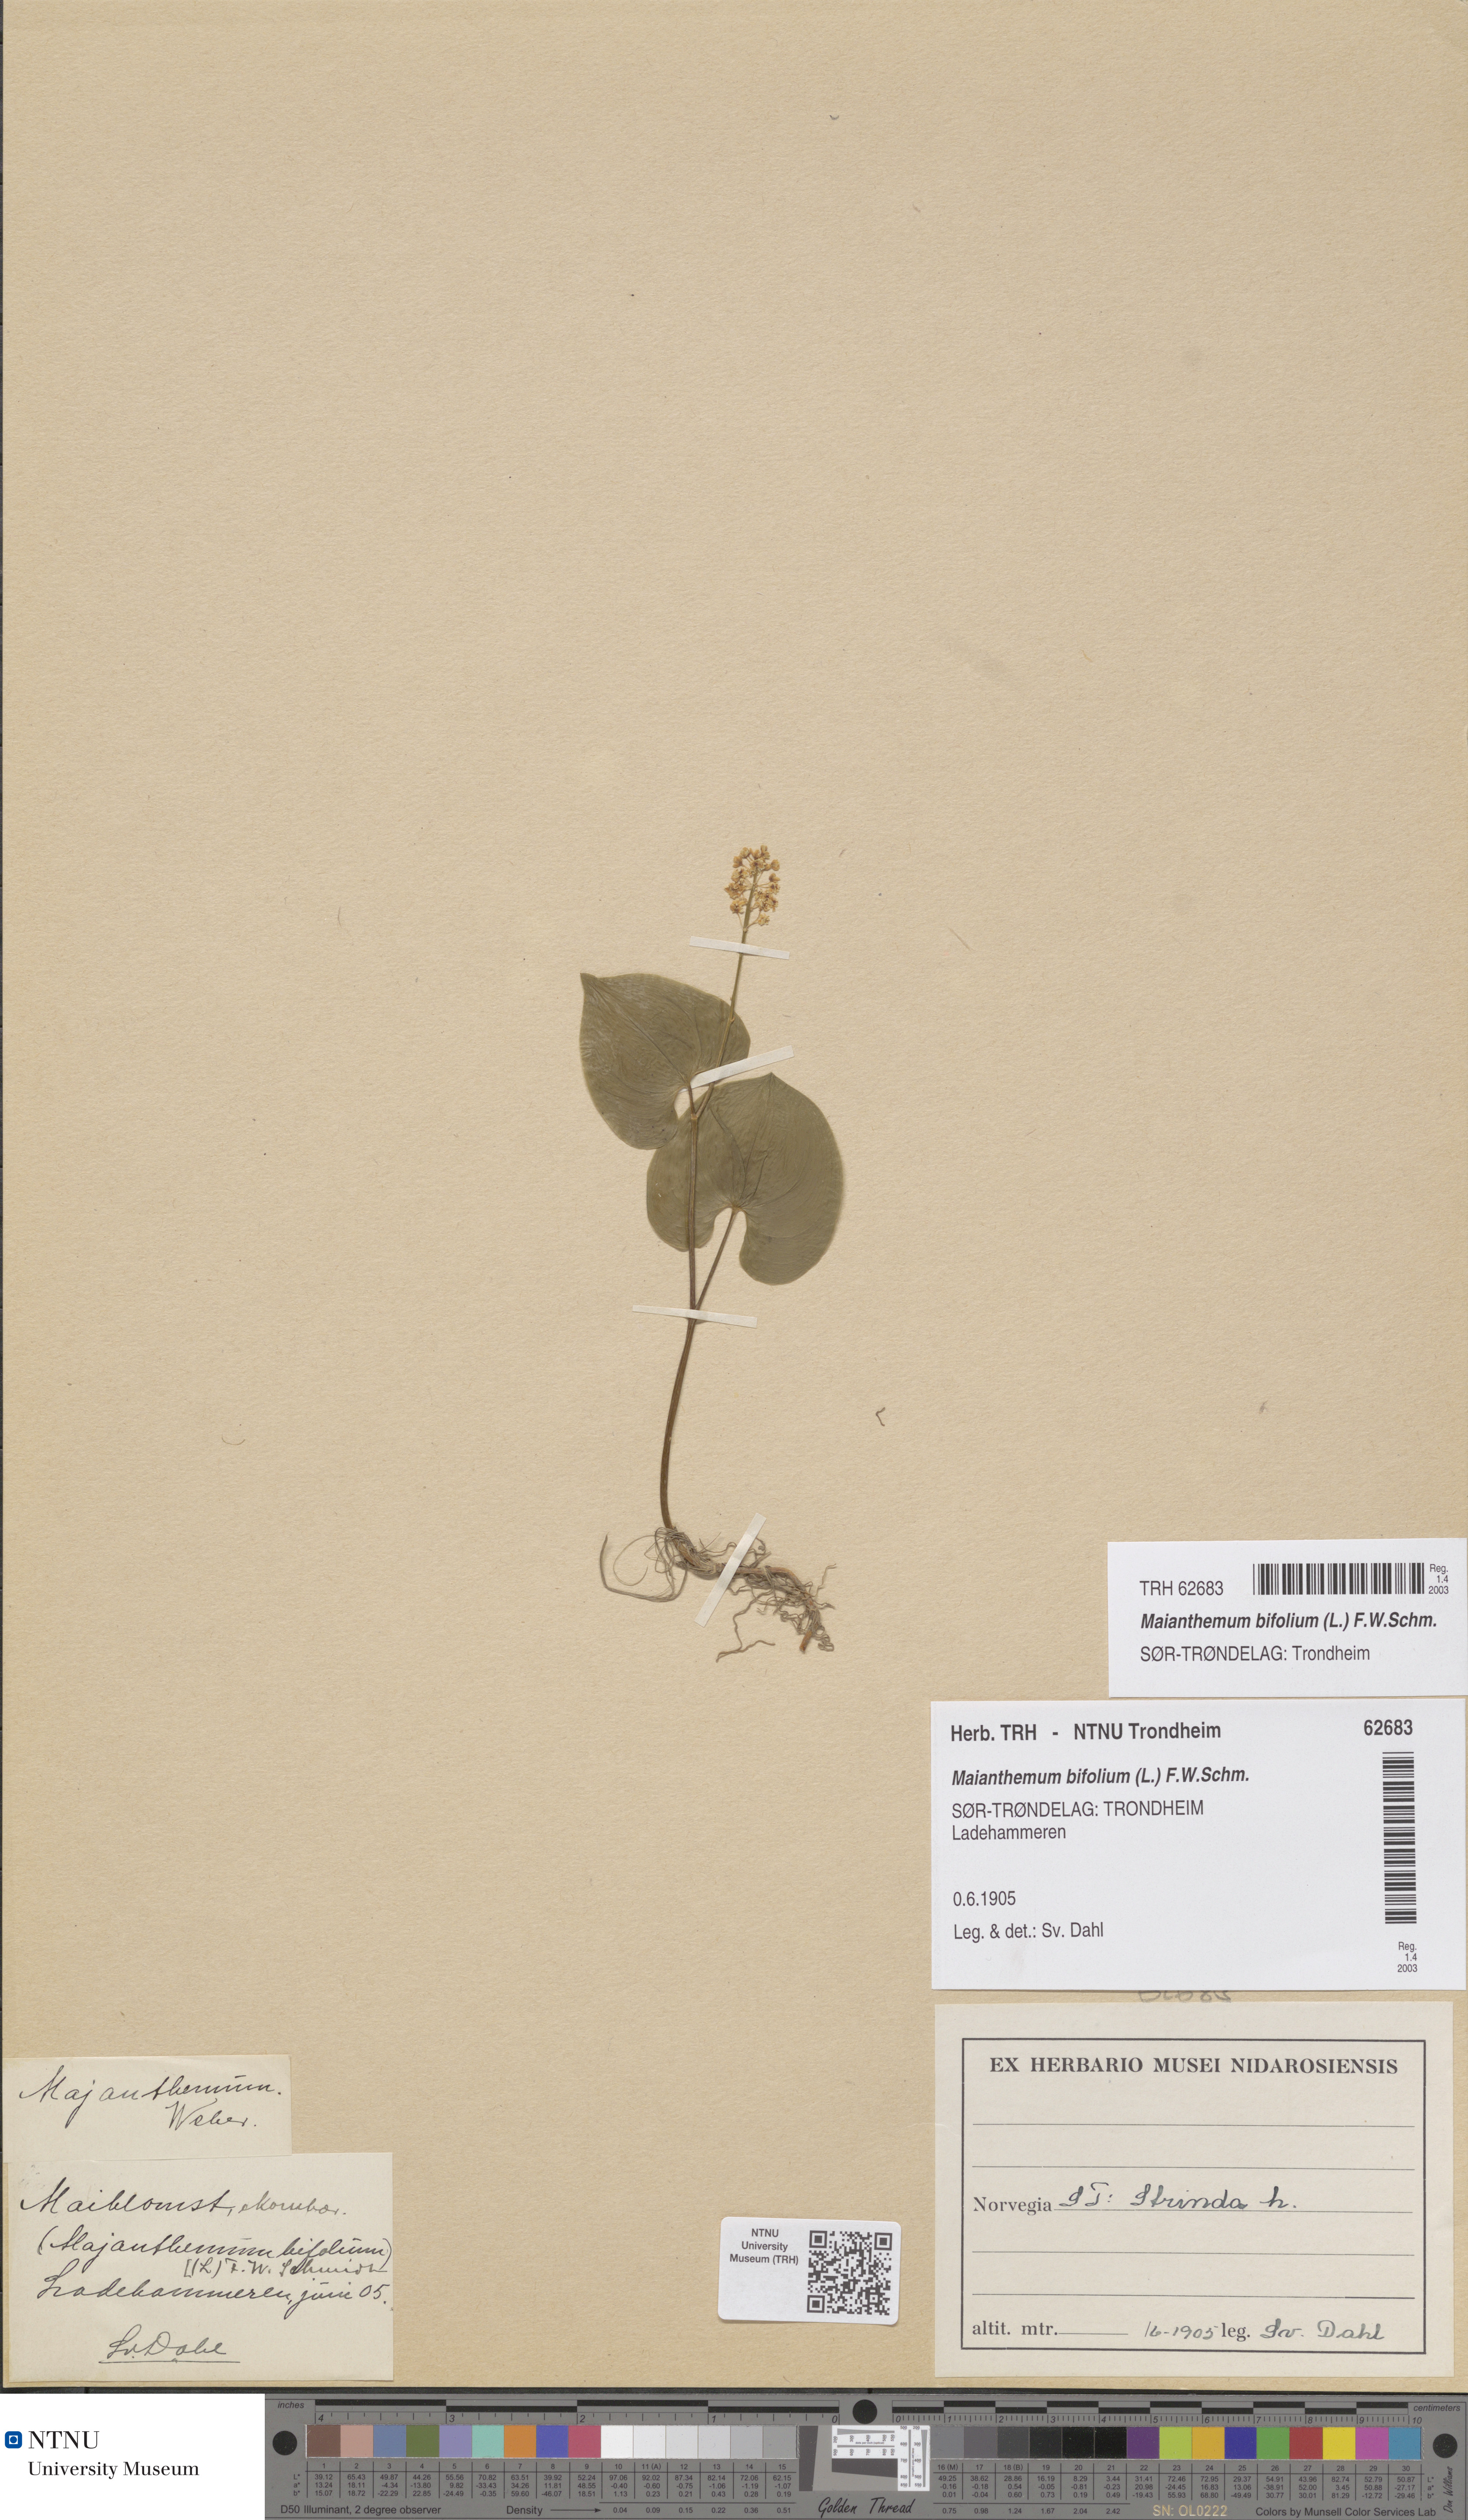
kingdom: Plantae
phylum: Tracheophyta
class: Liliopsida
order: Asparagales
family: Asparagaceae
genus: Maianthemum
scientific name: Maianthemum bifolium
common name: May lily
